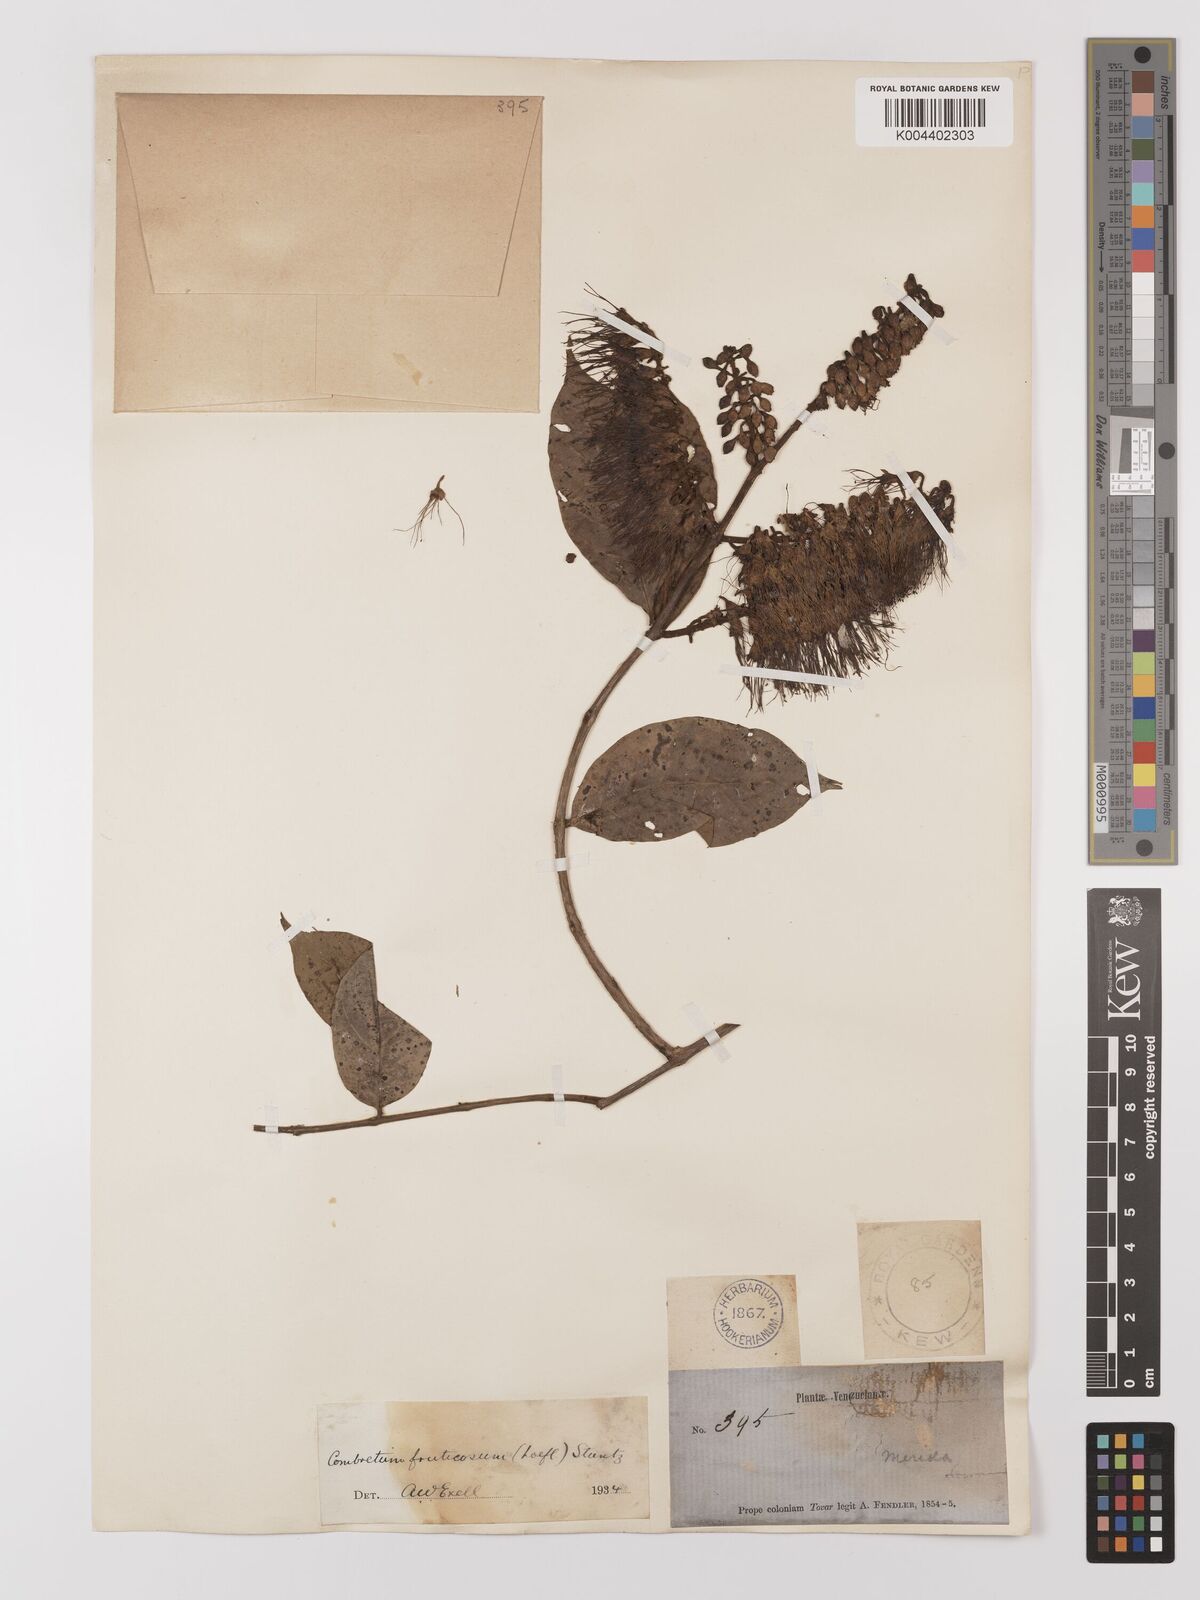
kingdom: Plantae
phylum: Tracheophyta
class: Magnoliopsida
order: Myrtales
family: Combretaceae
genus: Combretum
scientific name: Combretum fruticosum
